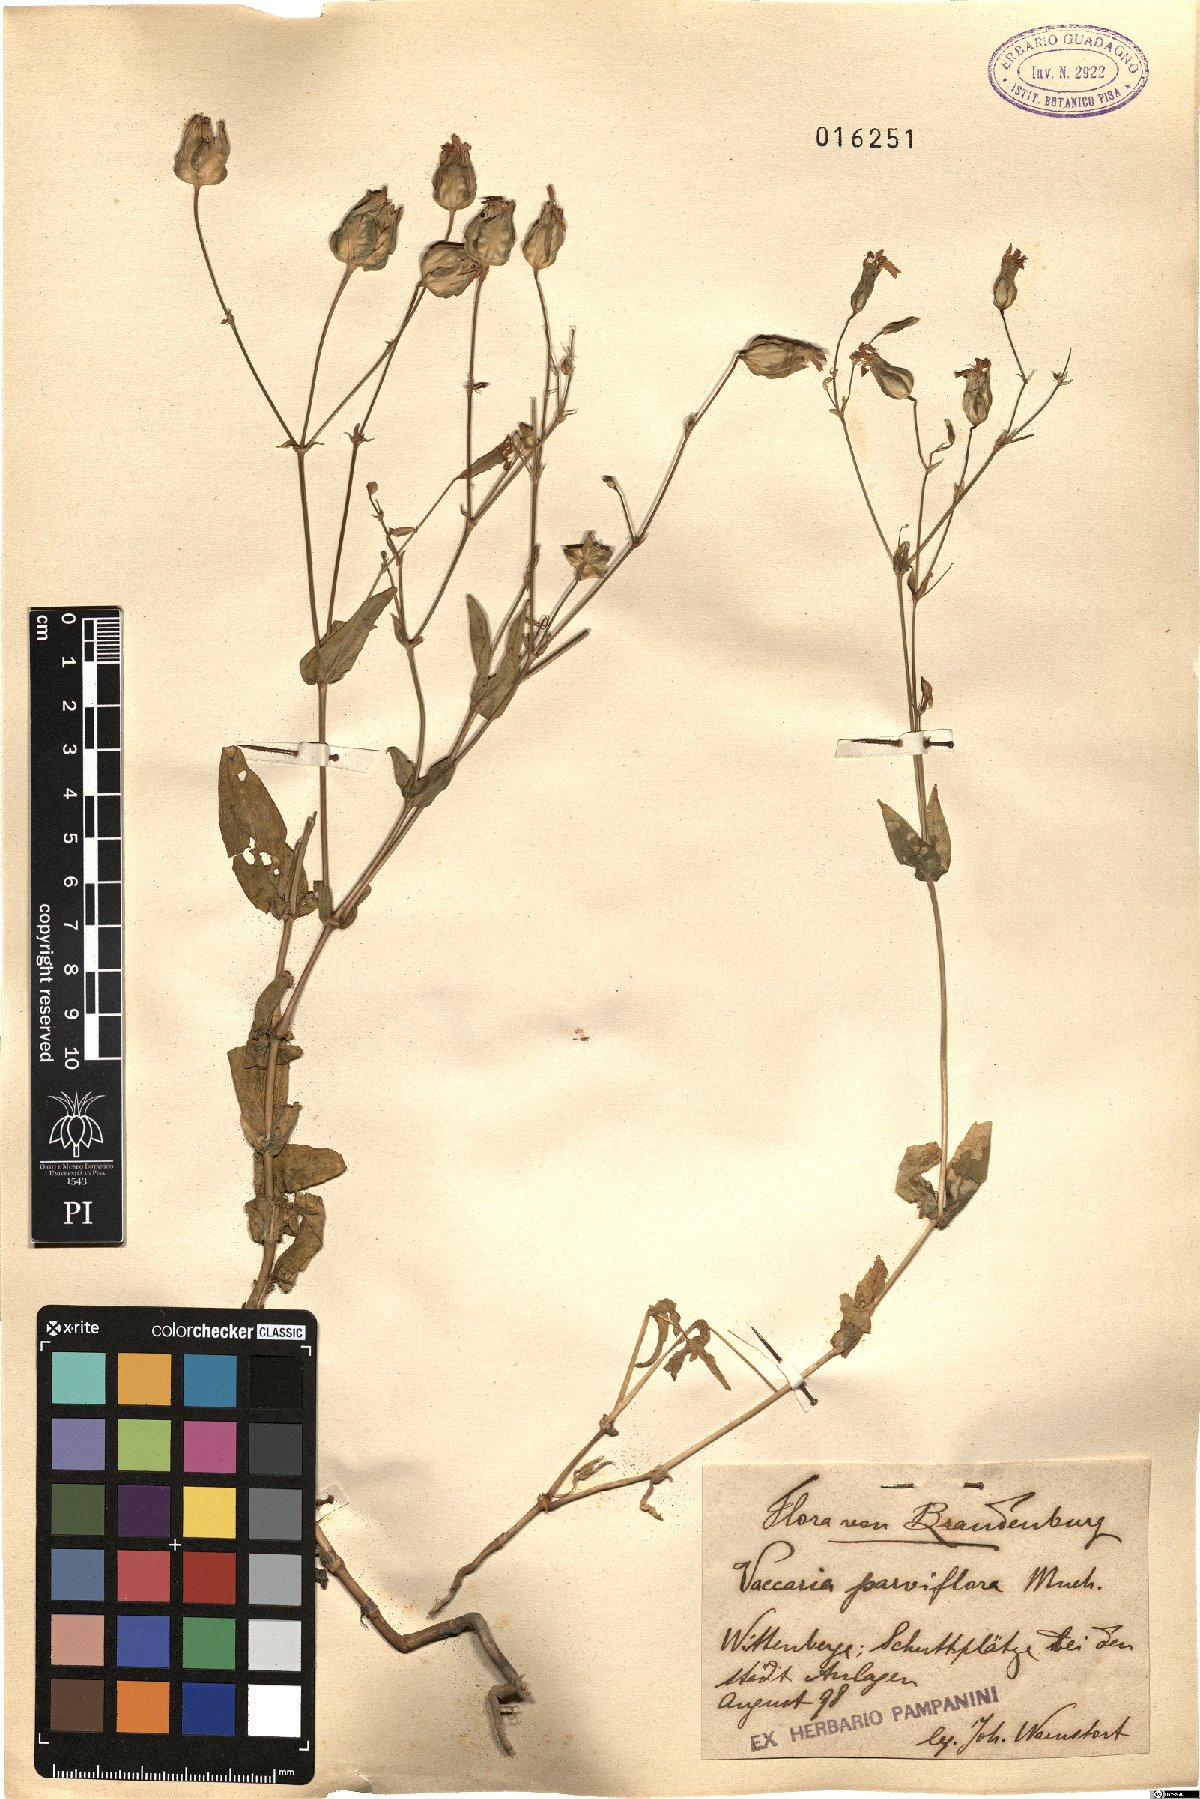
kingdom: Plantae
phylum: Tracheophyta
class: Magnoliopsida
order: Caryophyllales
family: Caryophyllaceae
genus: Gypsophila
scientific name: Gypsophila vaccaria
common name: Cow soapwort
